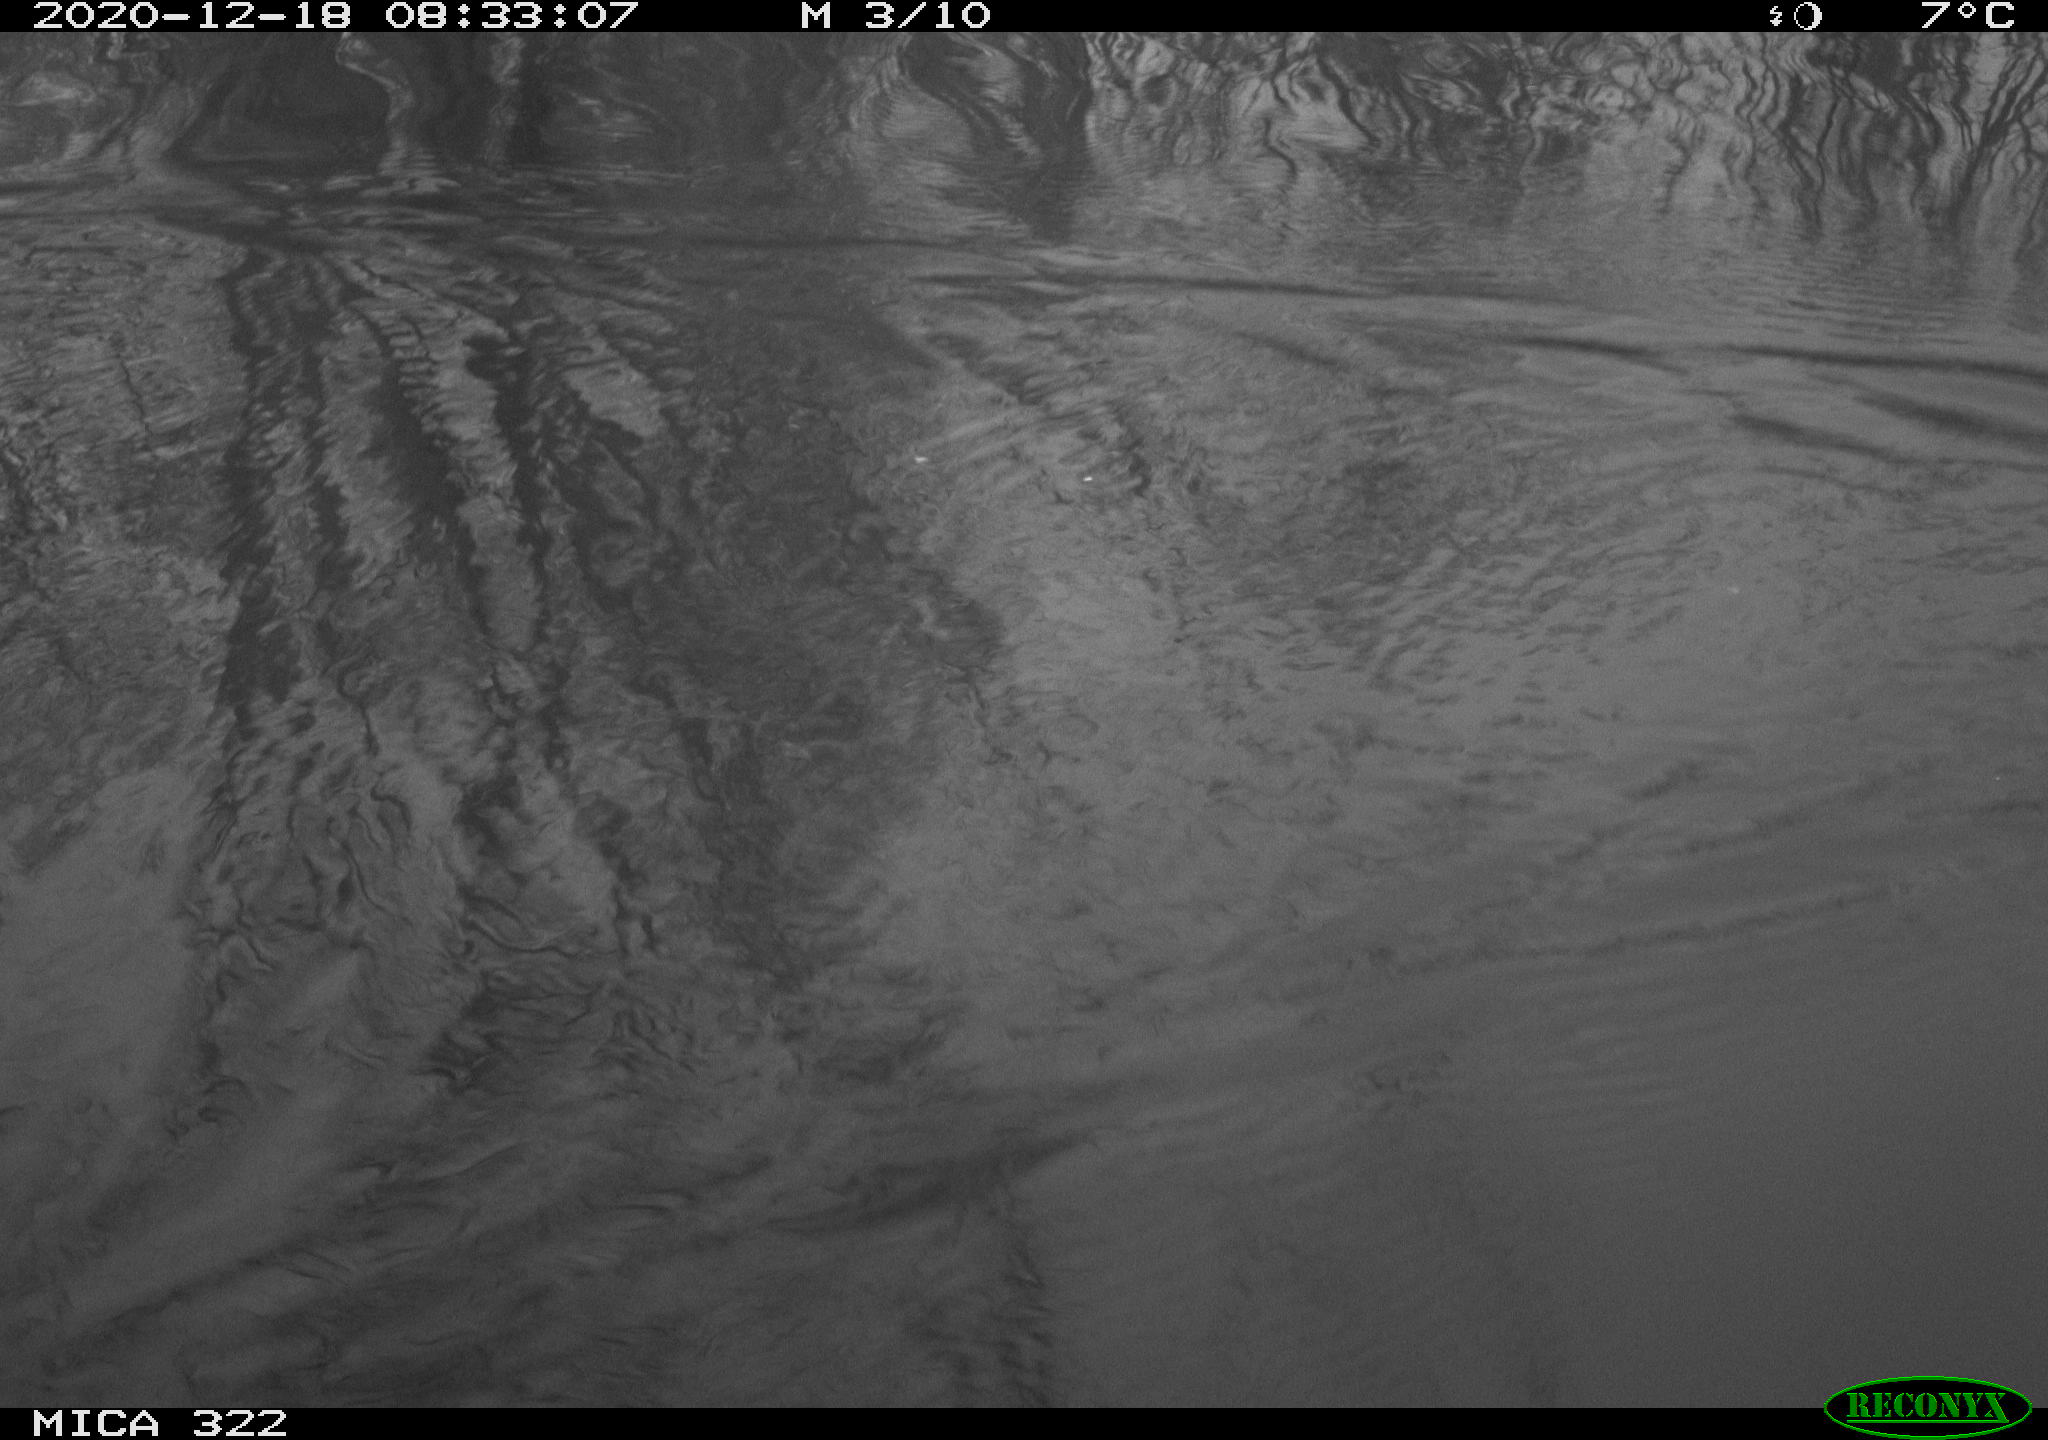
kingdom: Animalia
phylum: Chordata
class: Aves
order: Gruiformes
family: Rallidae
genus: Fulica
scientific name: Fulica atra
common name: Eurasian coot
